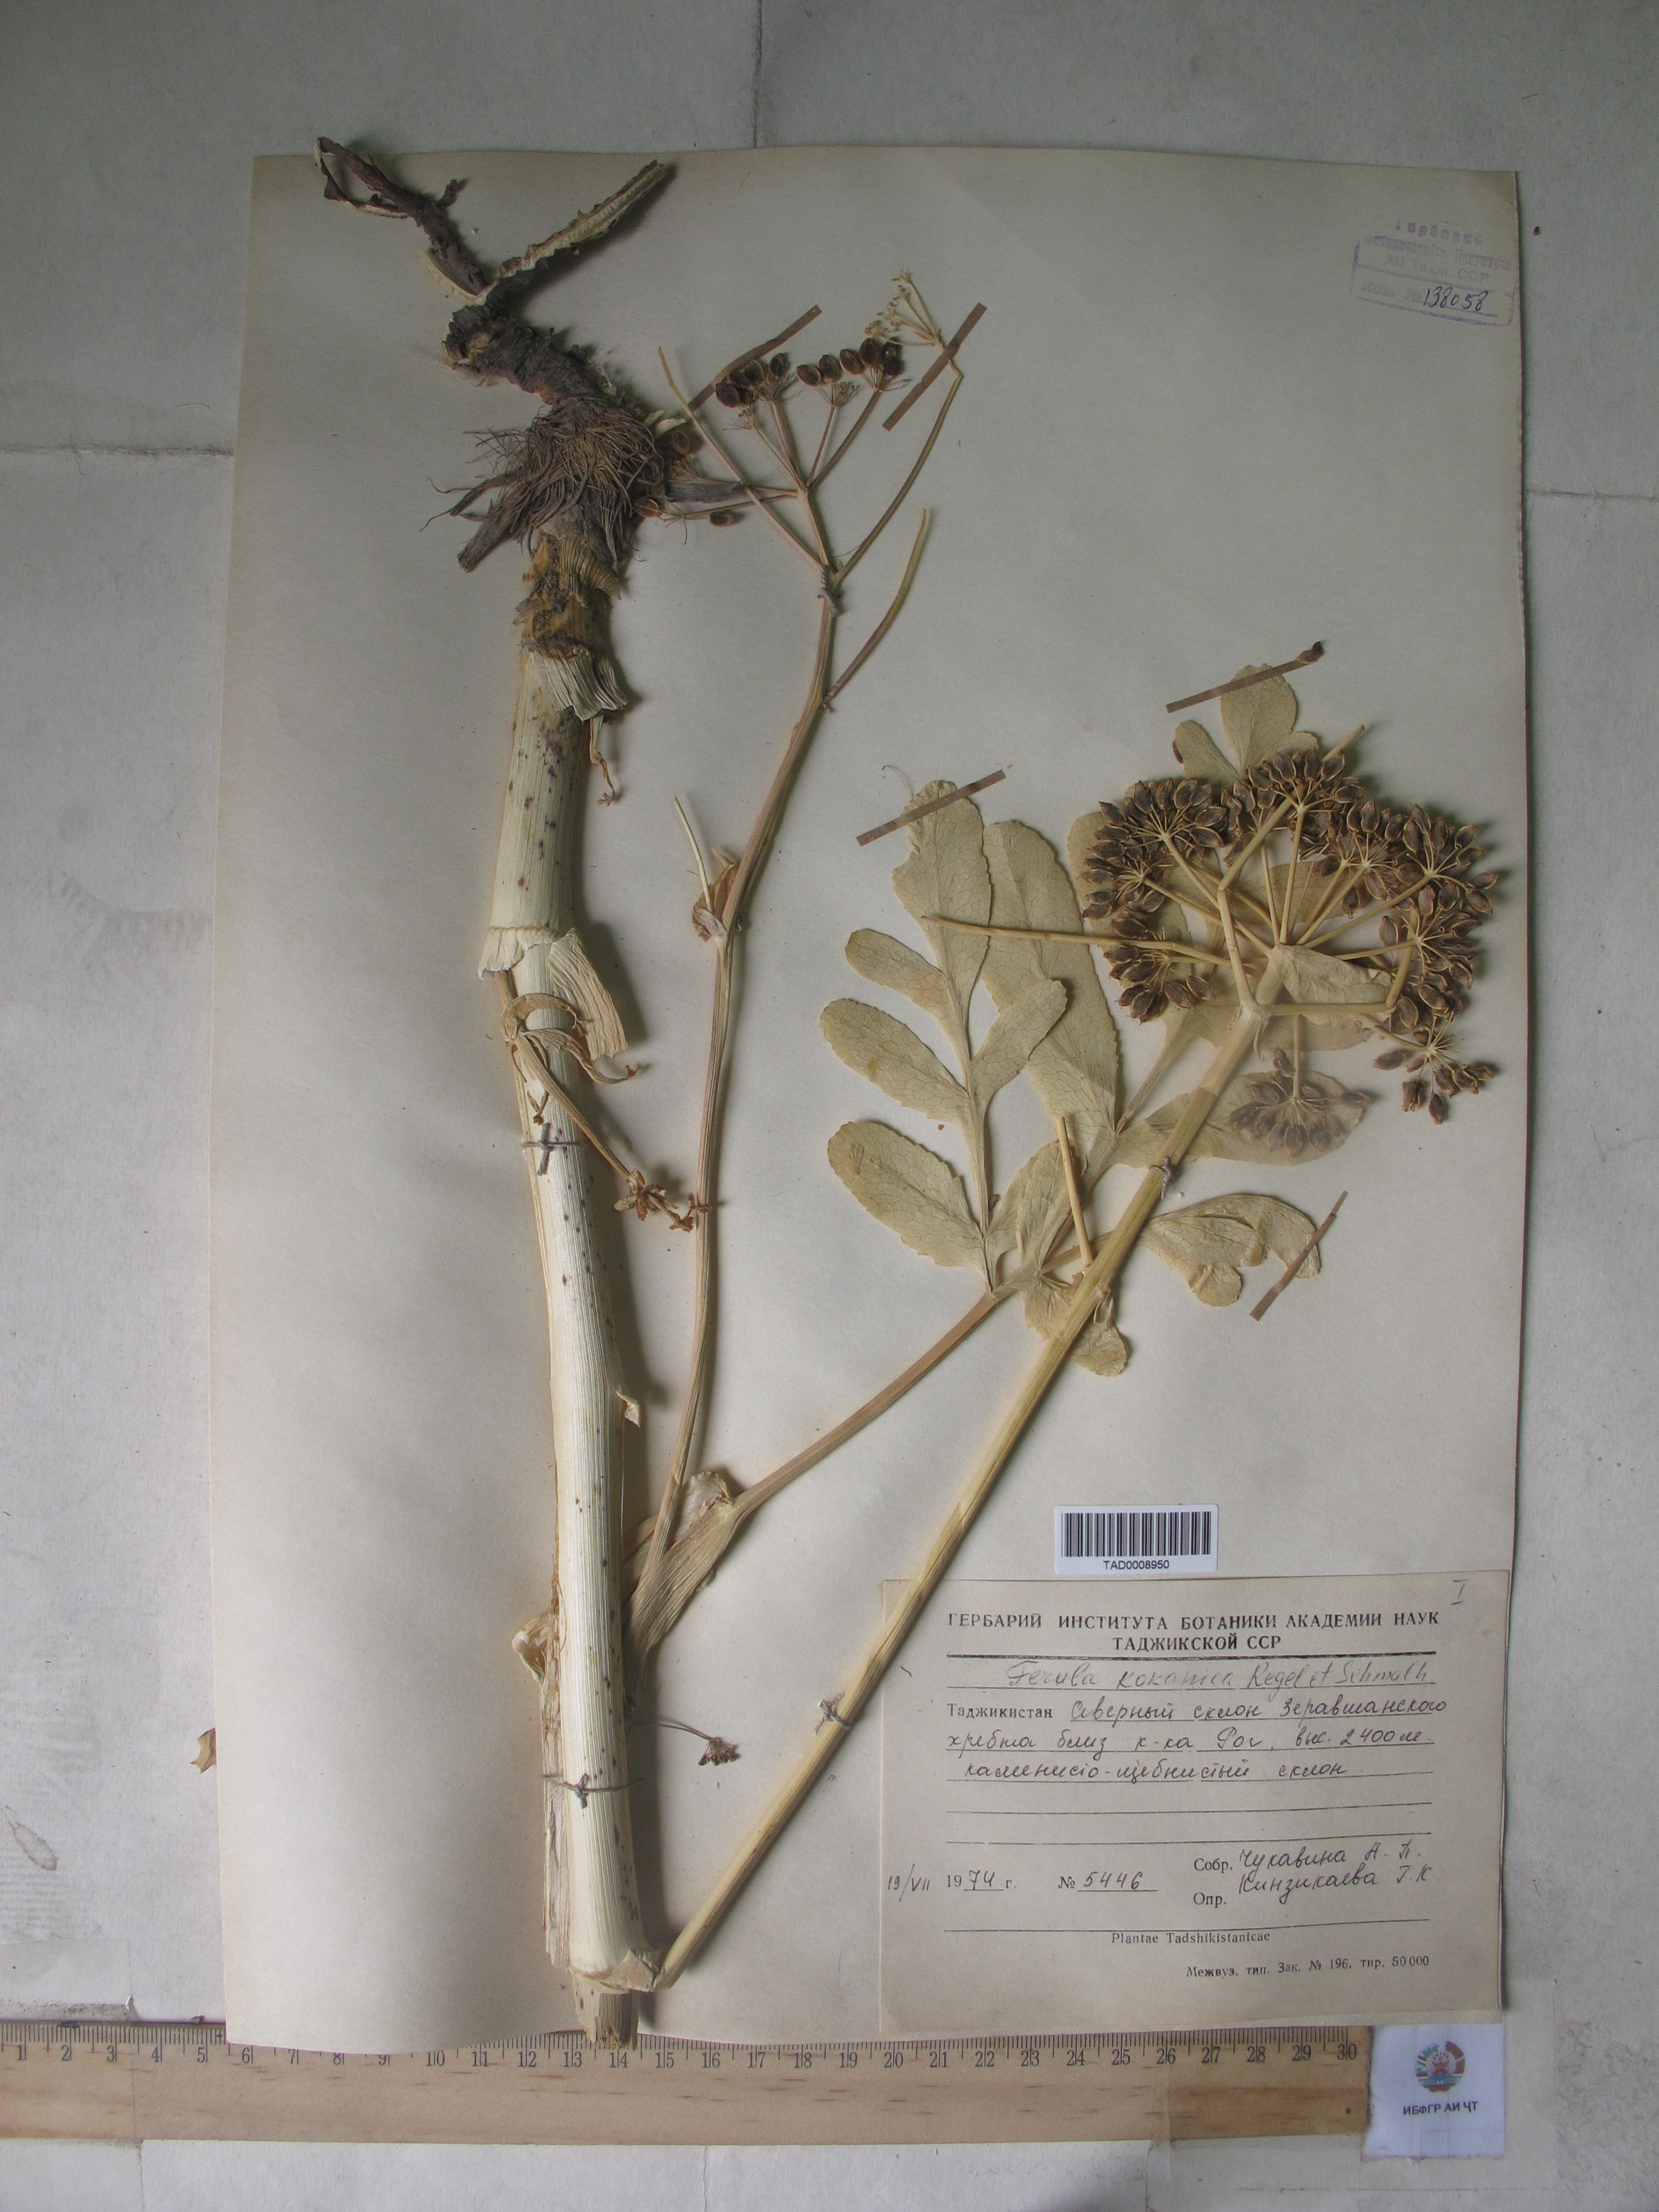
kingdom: Plantae
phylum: Tracheophyta
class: Magnoliopsida
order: Apiales
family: Apiaceae
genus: Ferula
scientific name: Ferula kokanica
